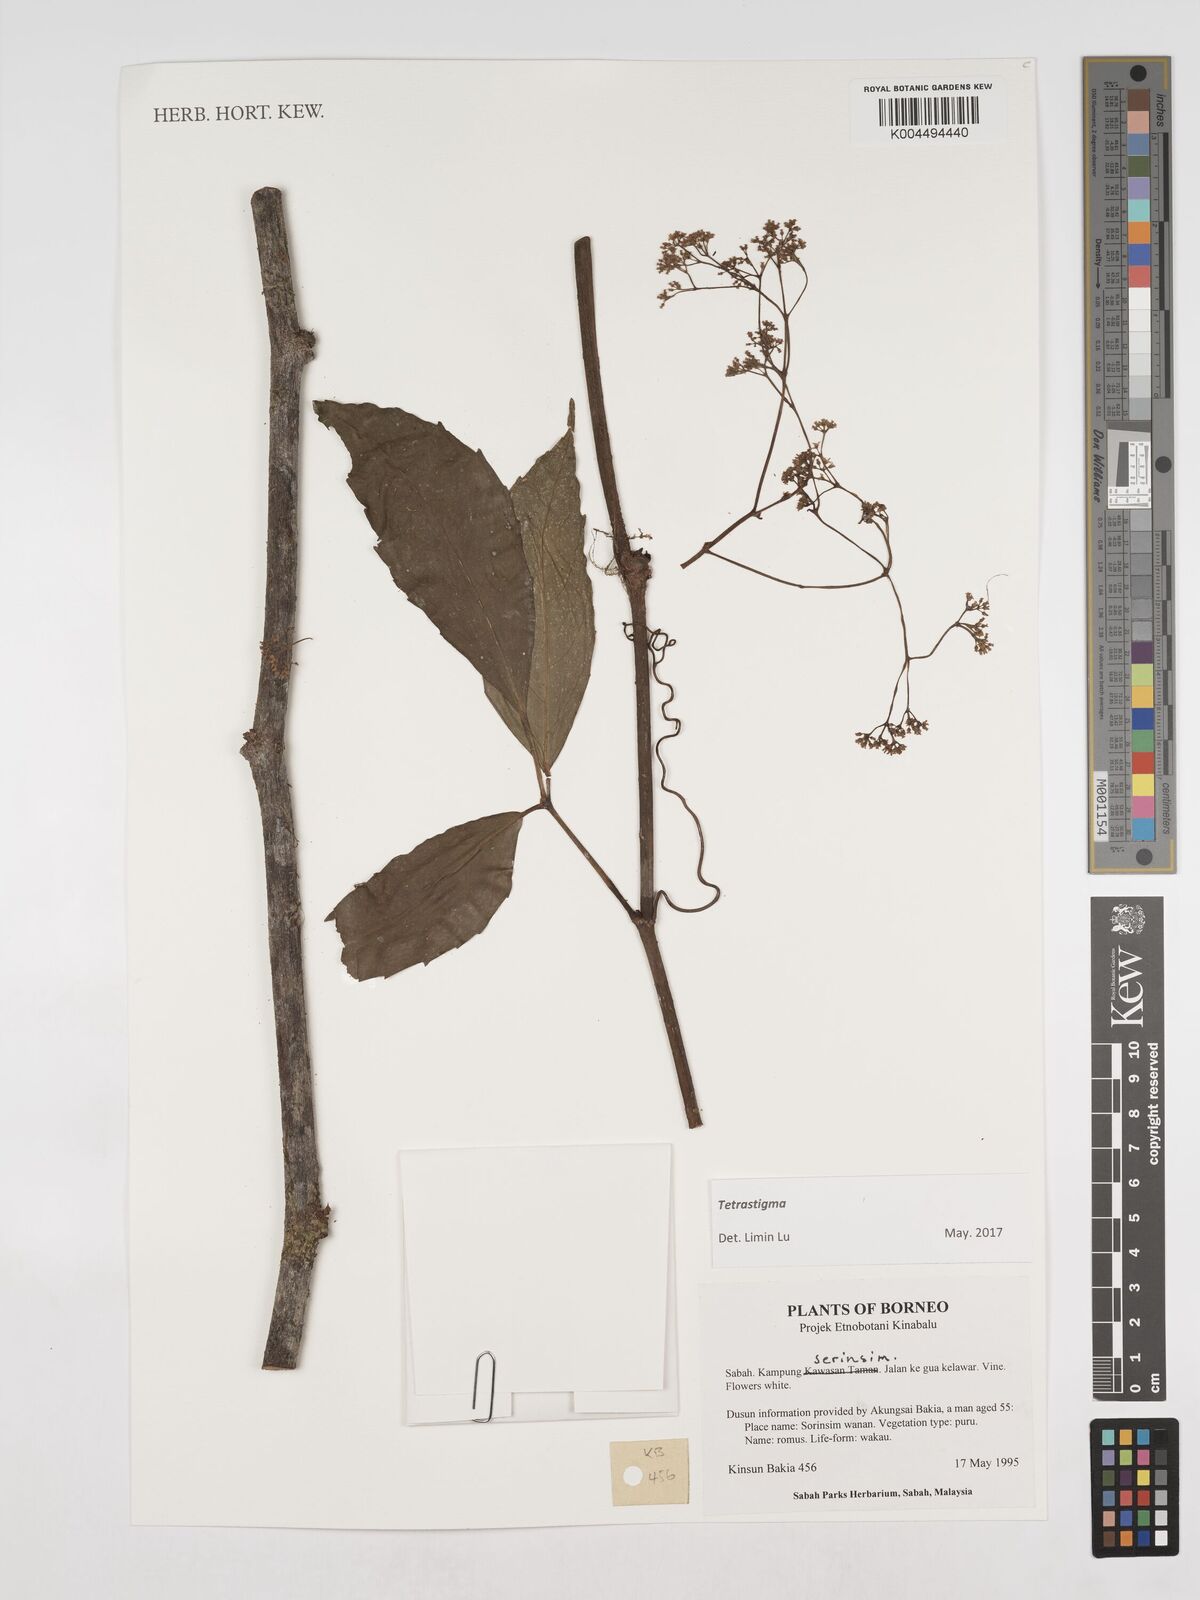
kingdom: Plantae
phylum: Tracheophyta
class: Magnoliopsida
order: Vitales
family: Vitaceae
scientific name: Vitaceae
